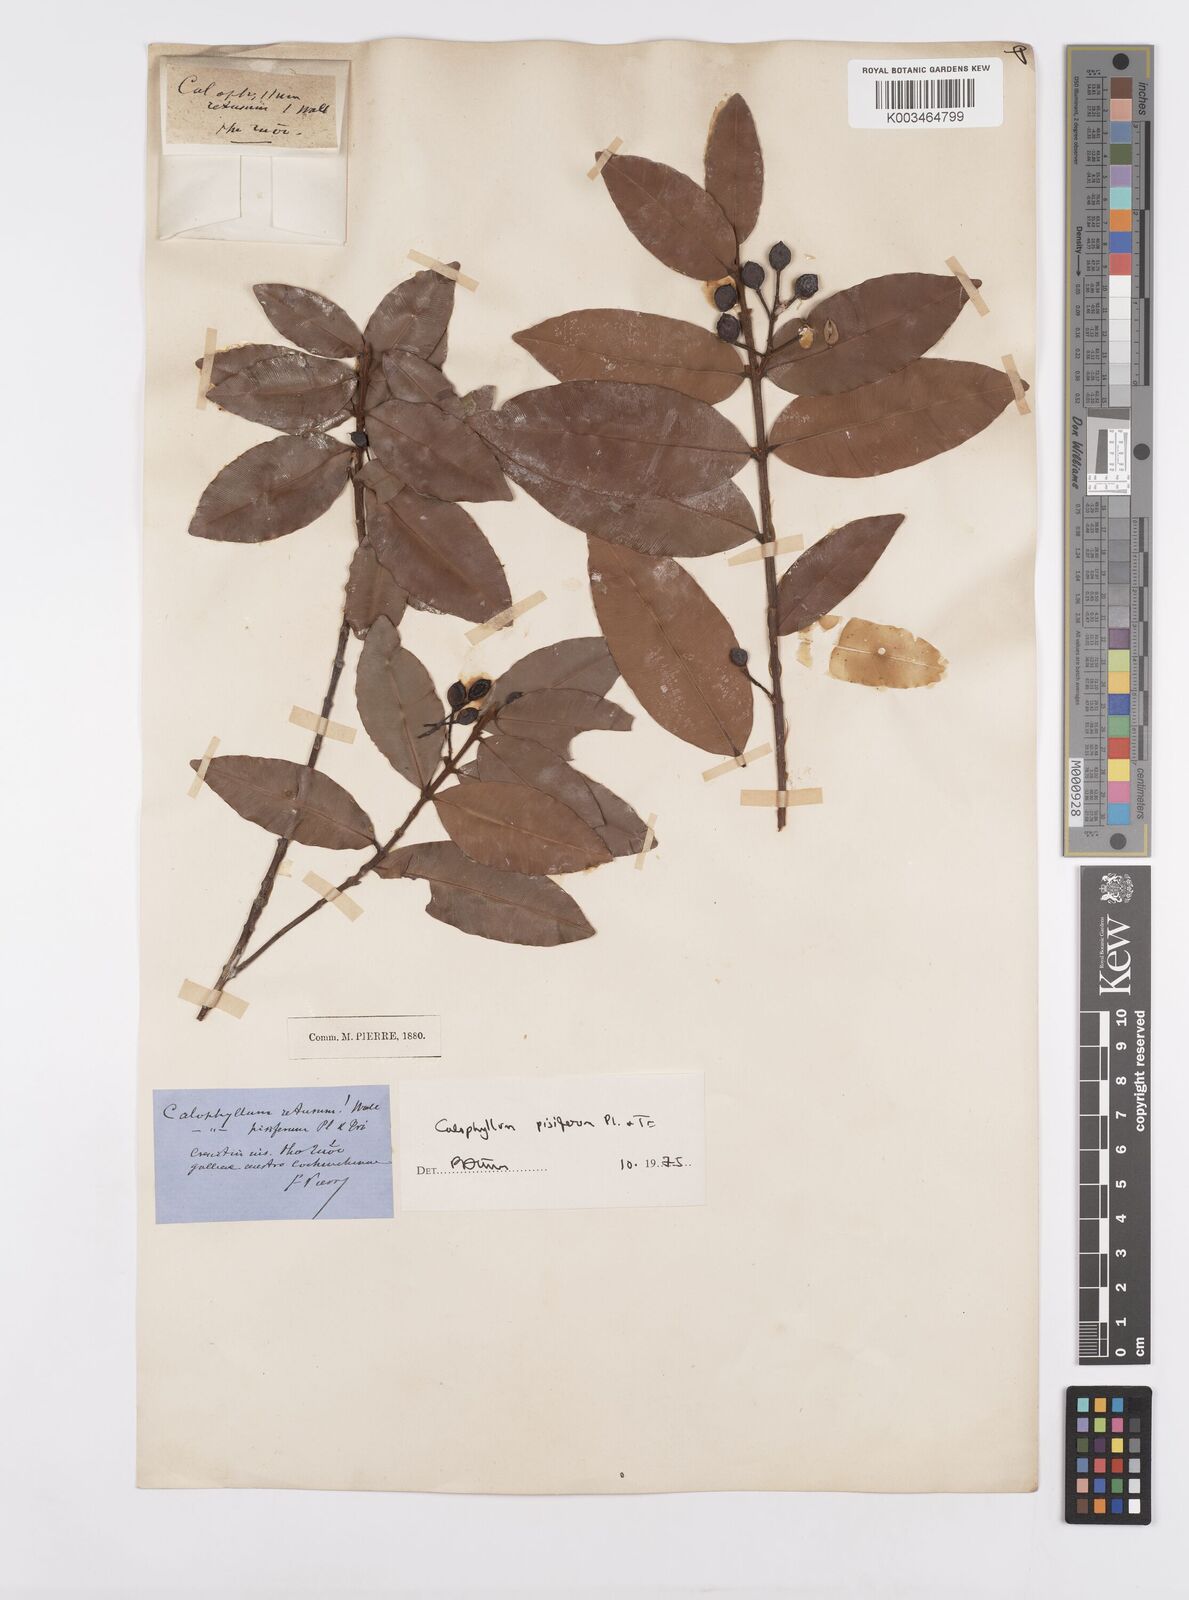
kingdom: Plantae
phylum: Tracheophyta
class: Magnoliopsida
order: Malpighiales
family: Calophyllaceae
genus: Calophyllum
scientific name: Calophyllum pisiferum
